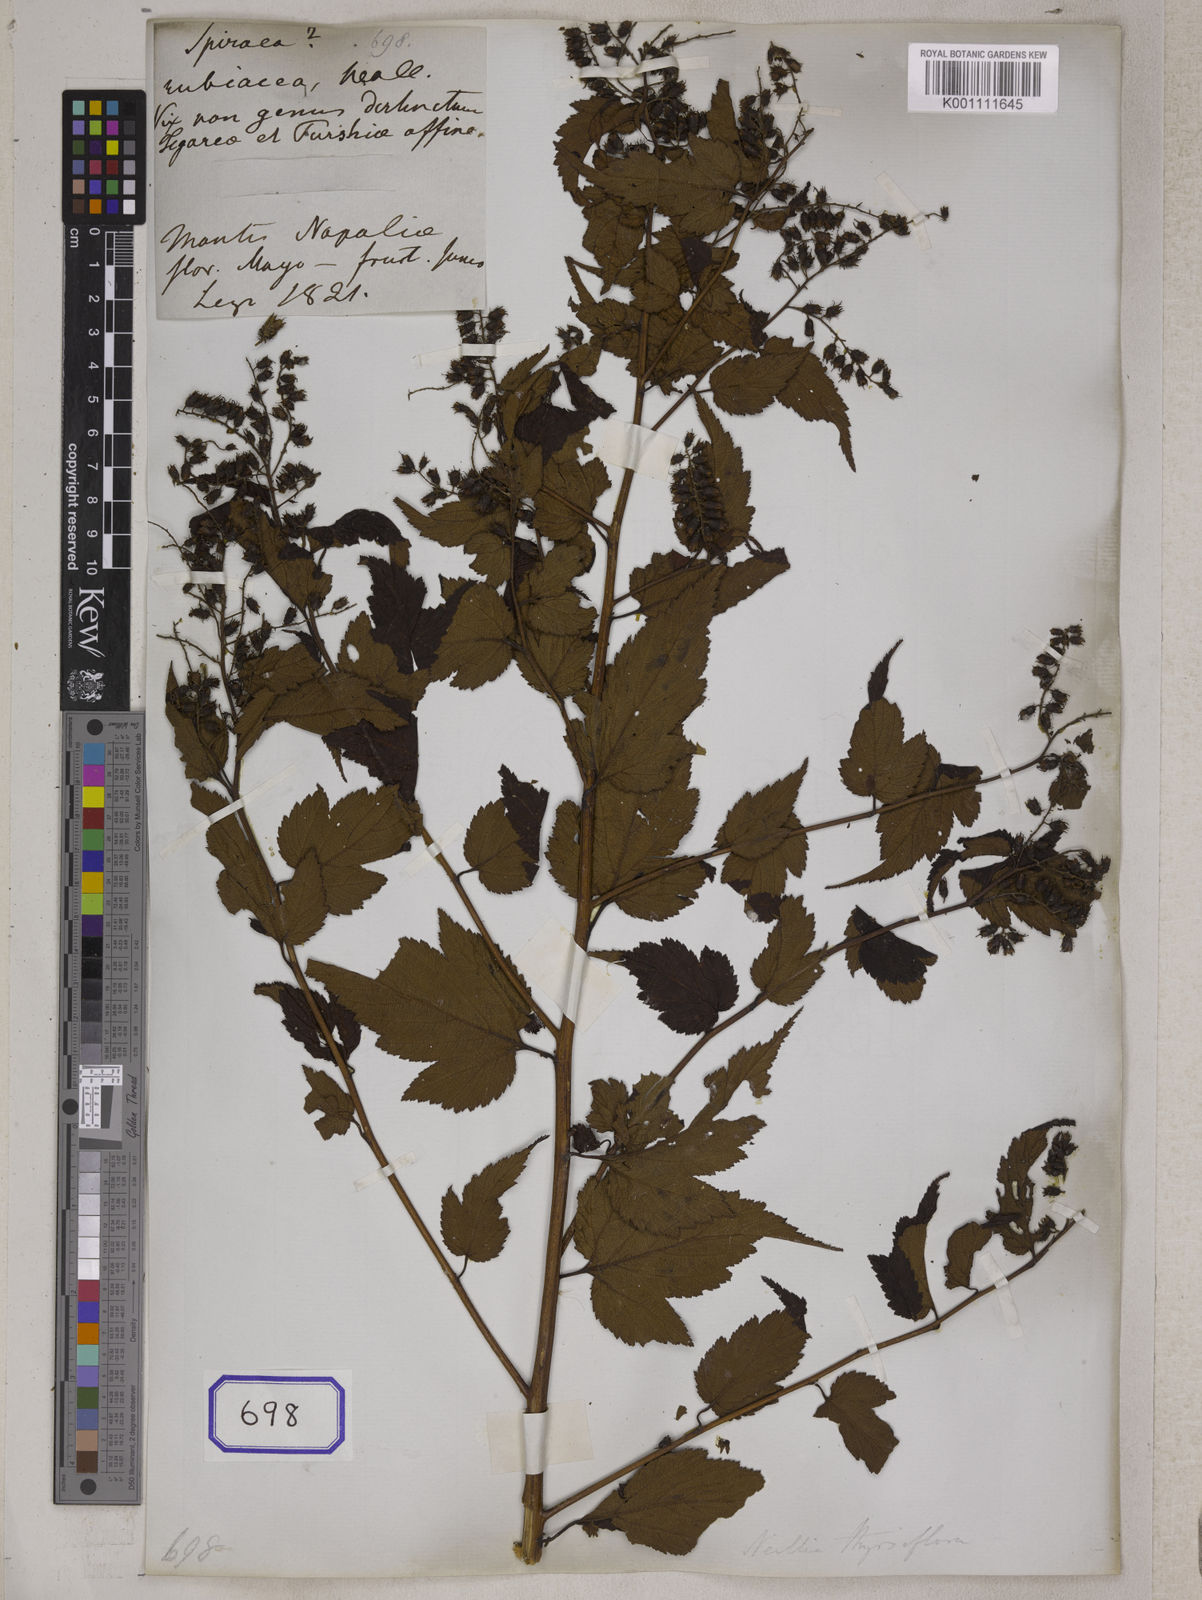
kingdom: Plantae
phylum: Tracheophyta
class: Magnoliopsida
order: Rosales
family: Rosaceae
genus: Neillia
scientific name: Neillia thyrsiflora
